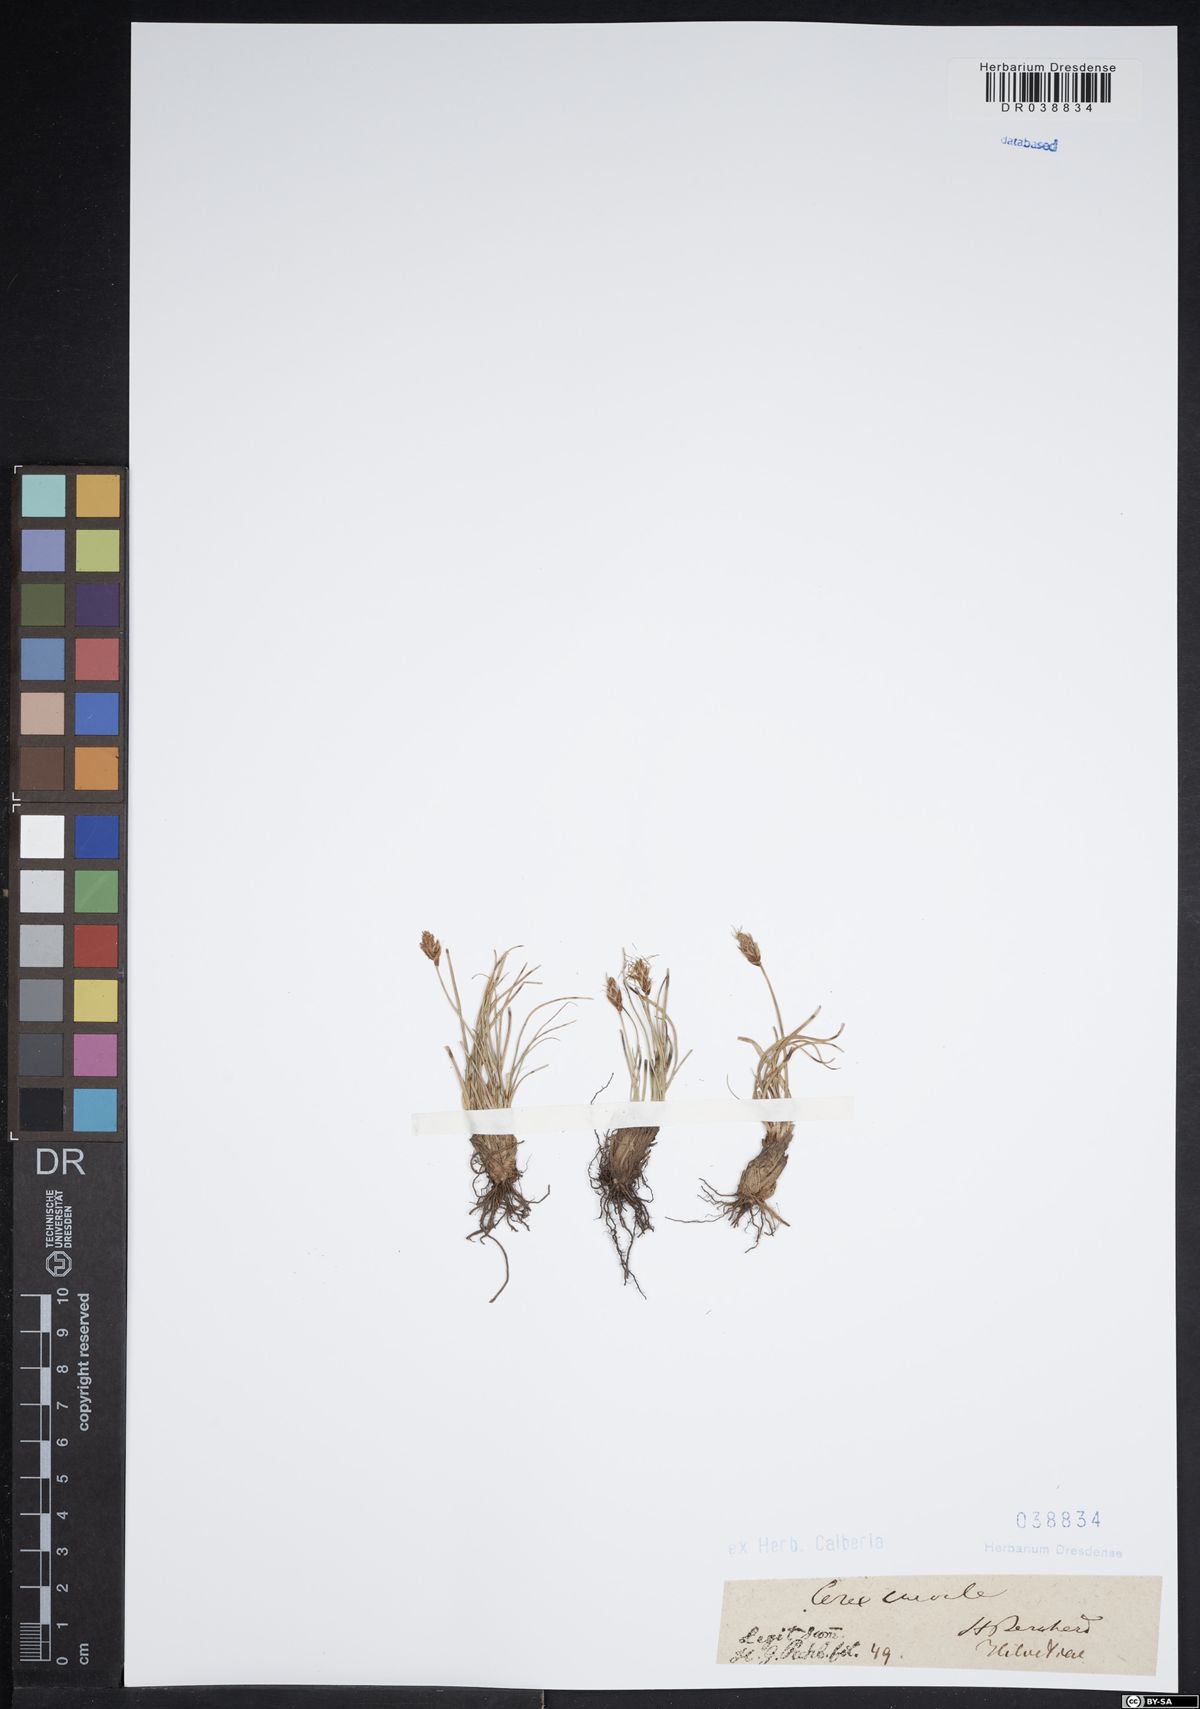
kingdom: Plantae
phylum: Tracheophyta
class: Liliopsida
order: Poales
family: Cyperaceae
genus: Carex
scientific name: Carex curvula
